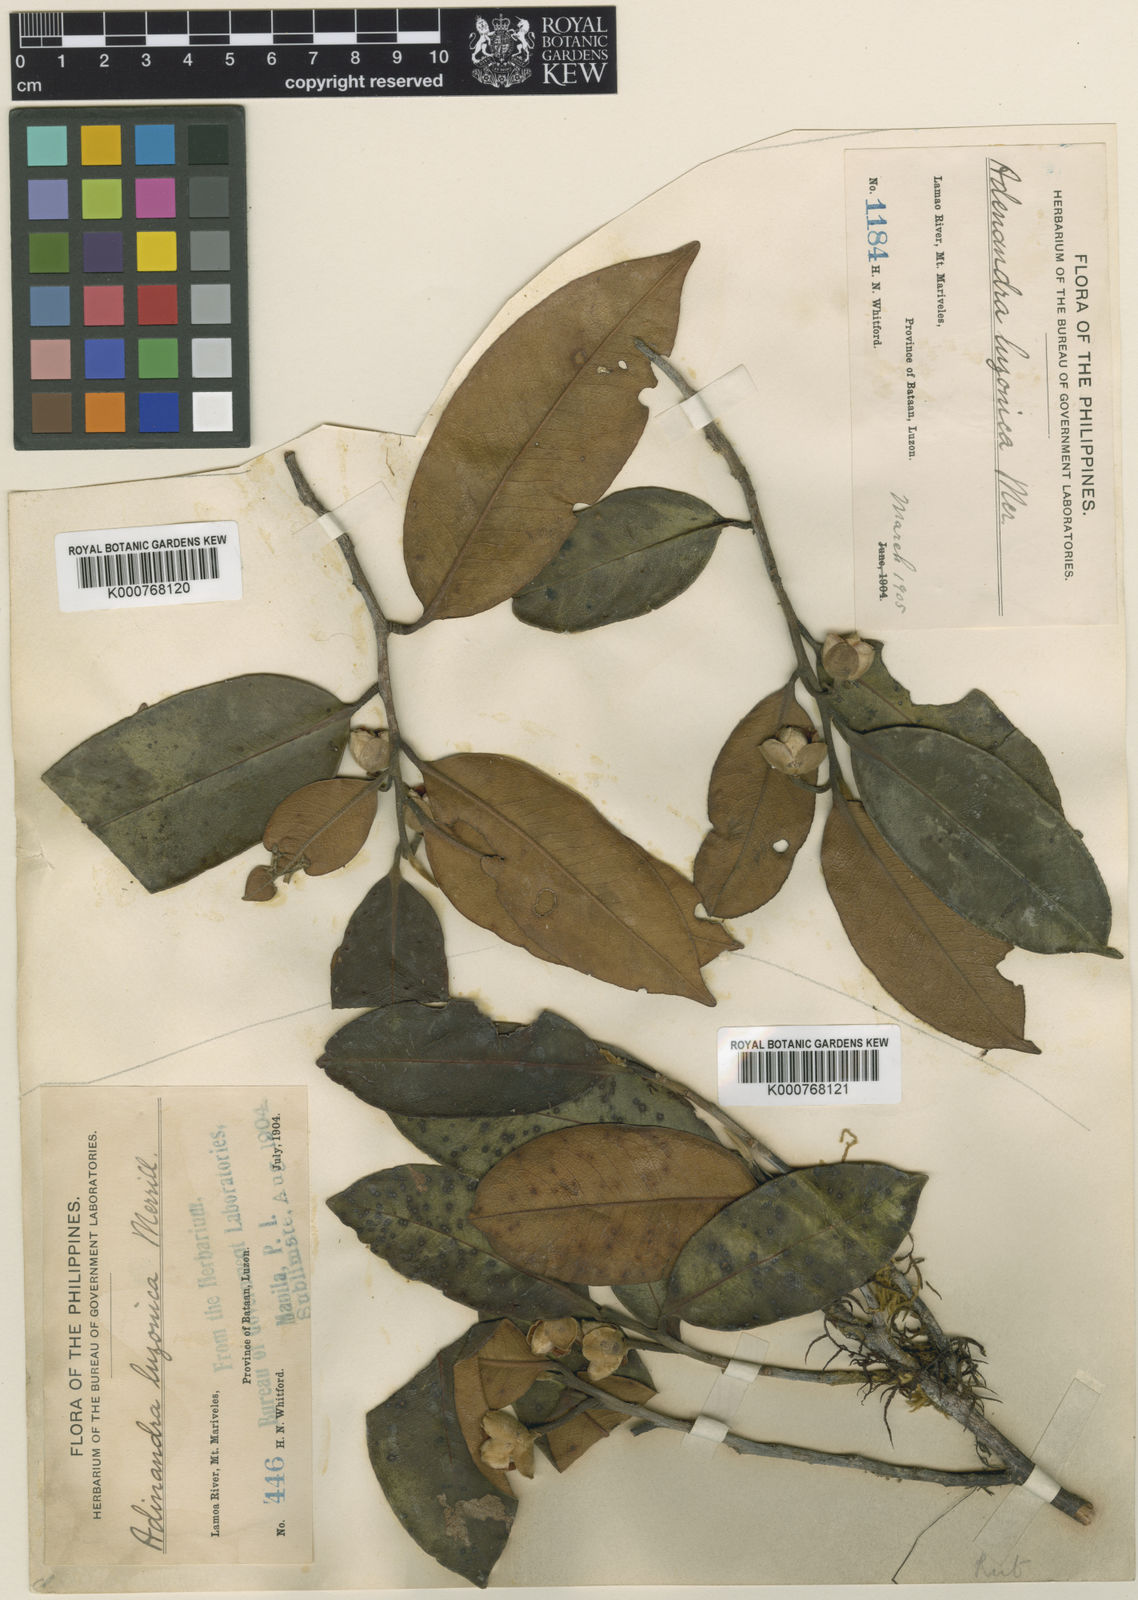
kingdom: Plantae
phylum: Tracheophyta
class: Magnoliopsida
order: Ericales
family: Pentaphylacaceae
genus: Adinandra
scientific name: Adinandra luzonica
